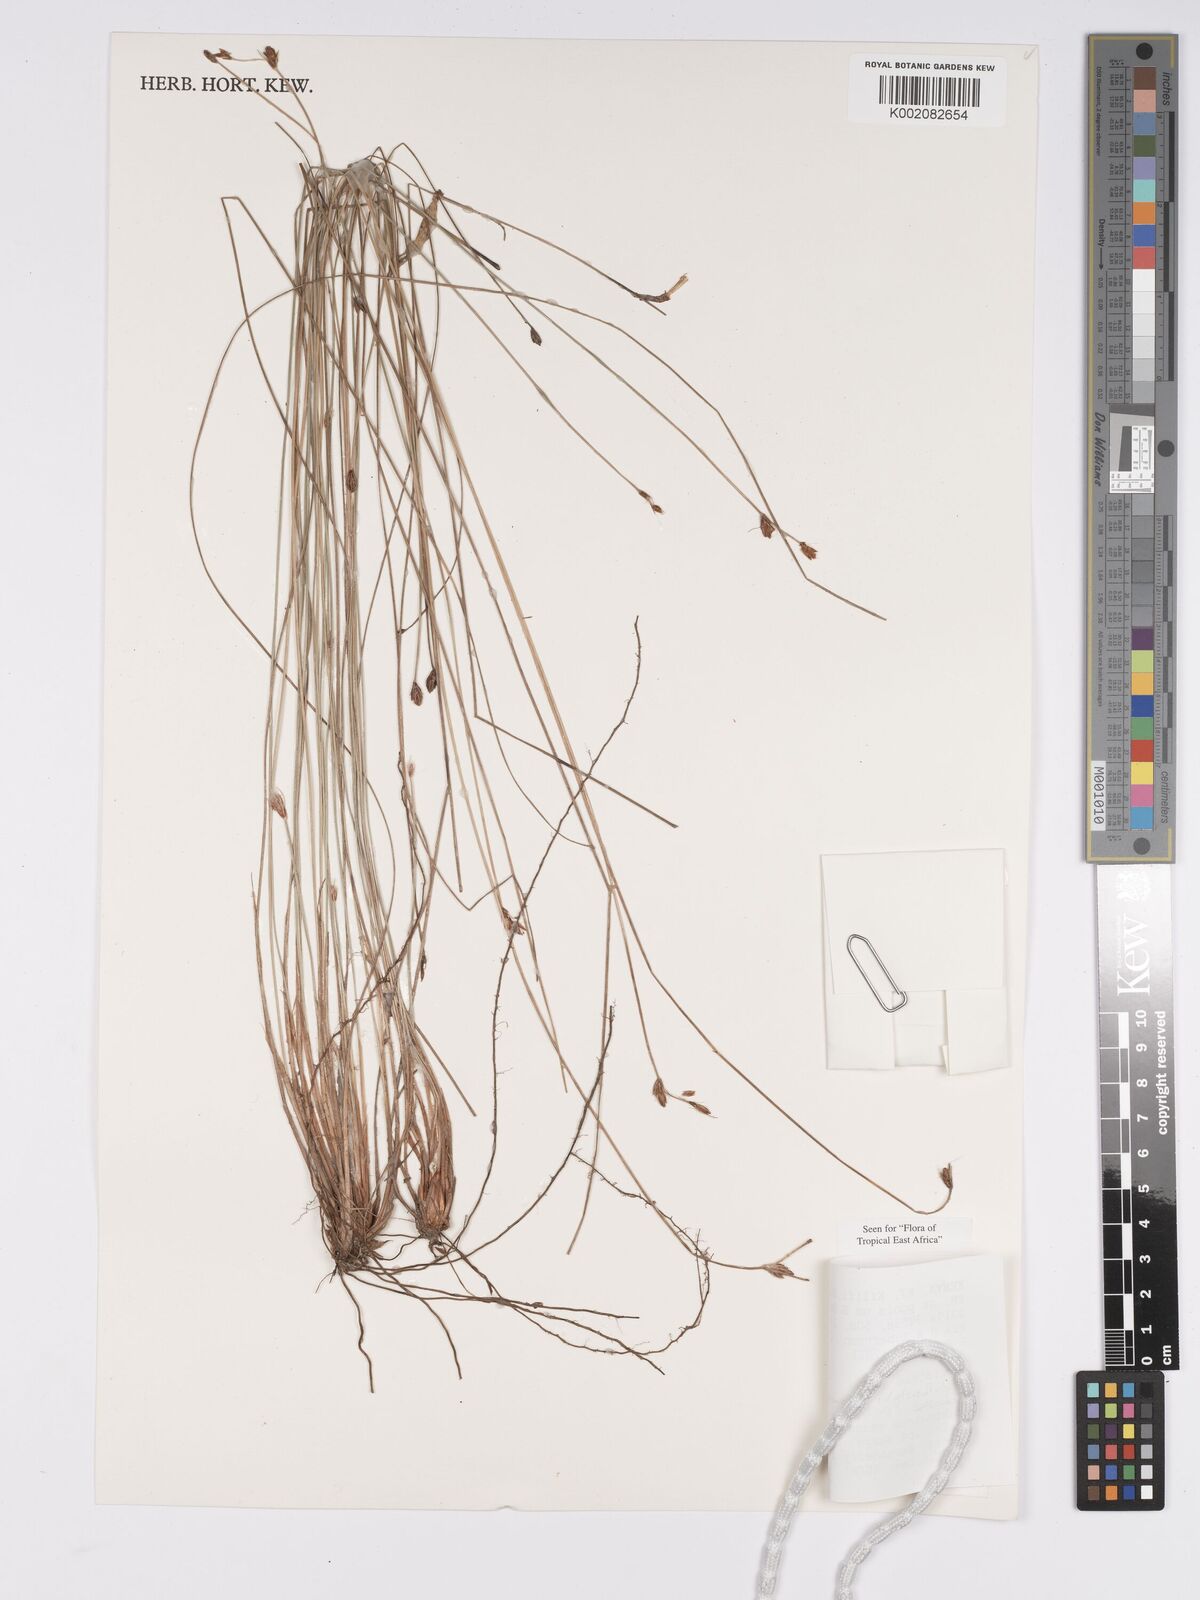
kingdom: Plantae
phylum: Tracheophyta
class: Liliopsida
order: Poales
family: Cyperaceae
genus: Bulbostylis
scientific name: Bulbostylis boeckeleriana
